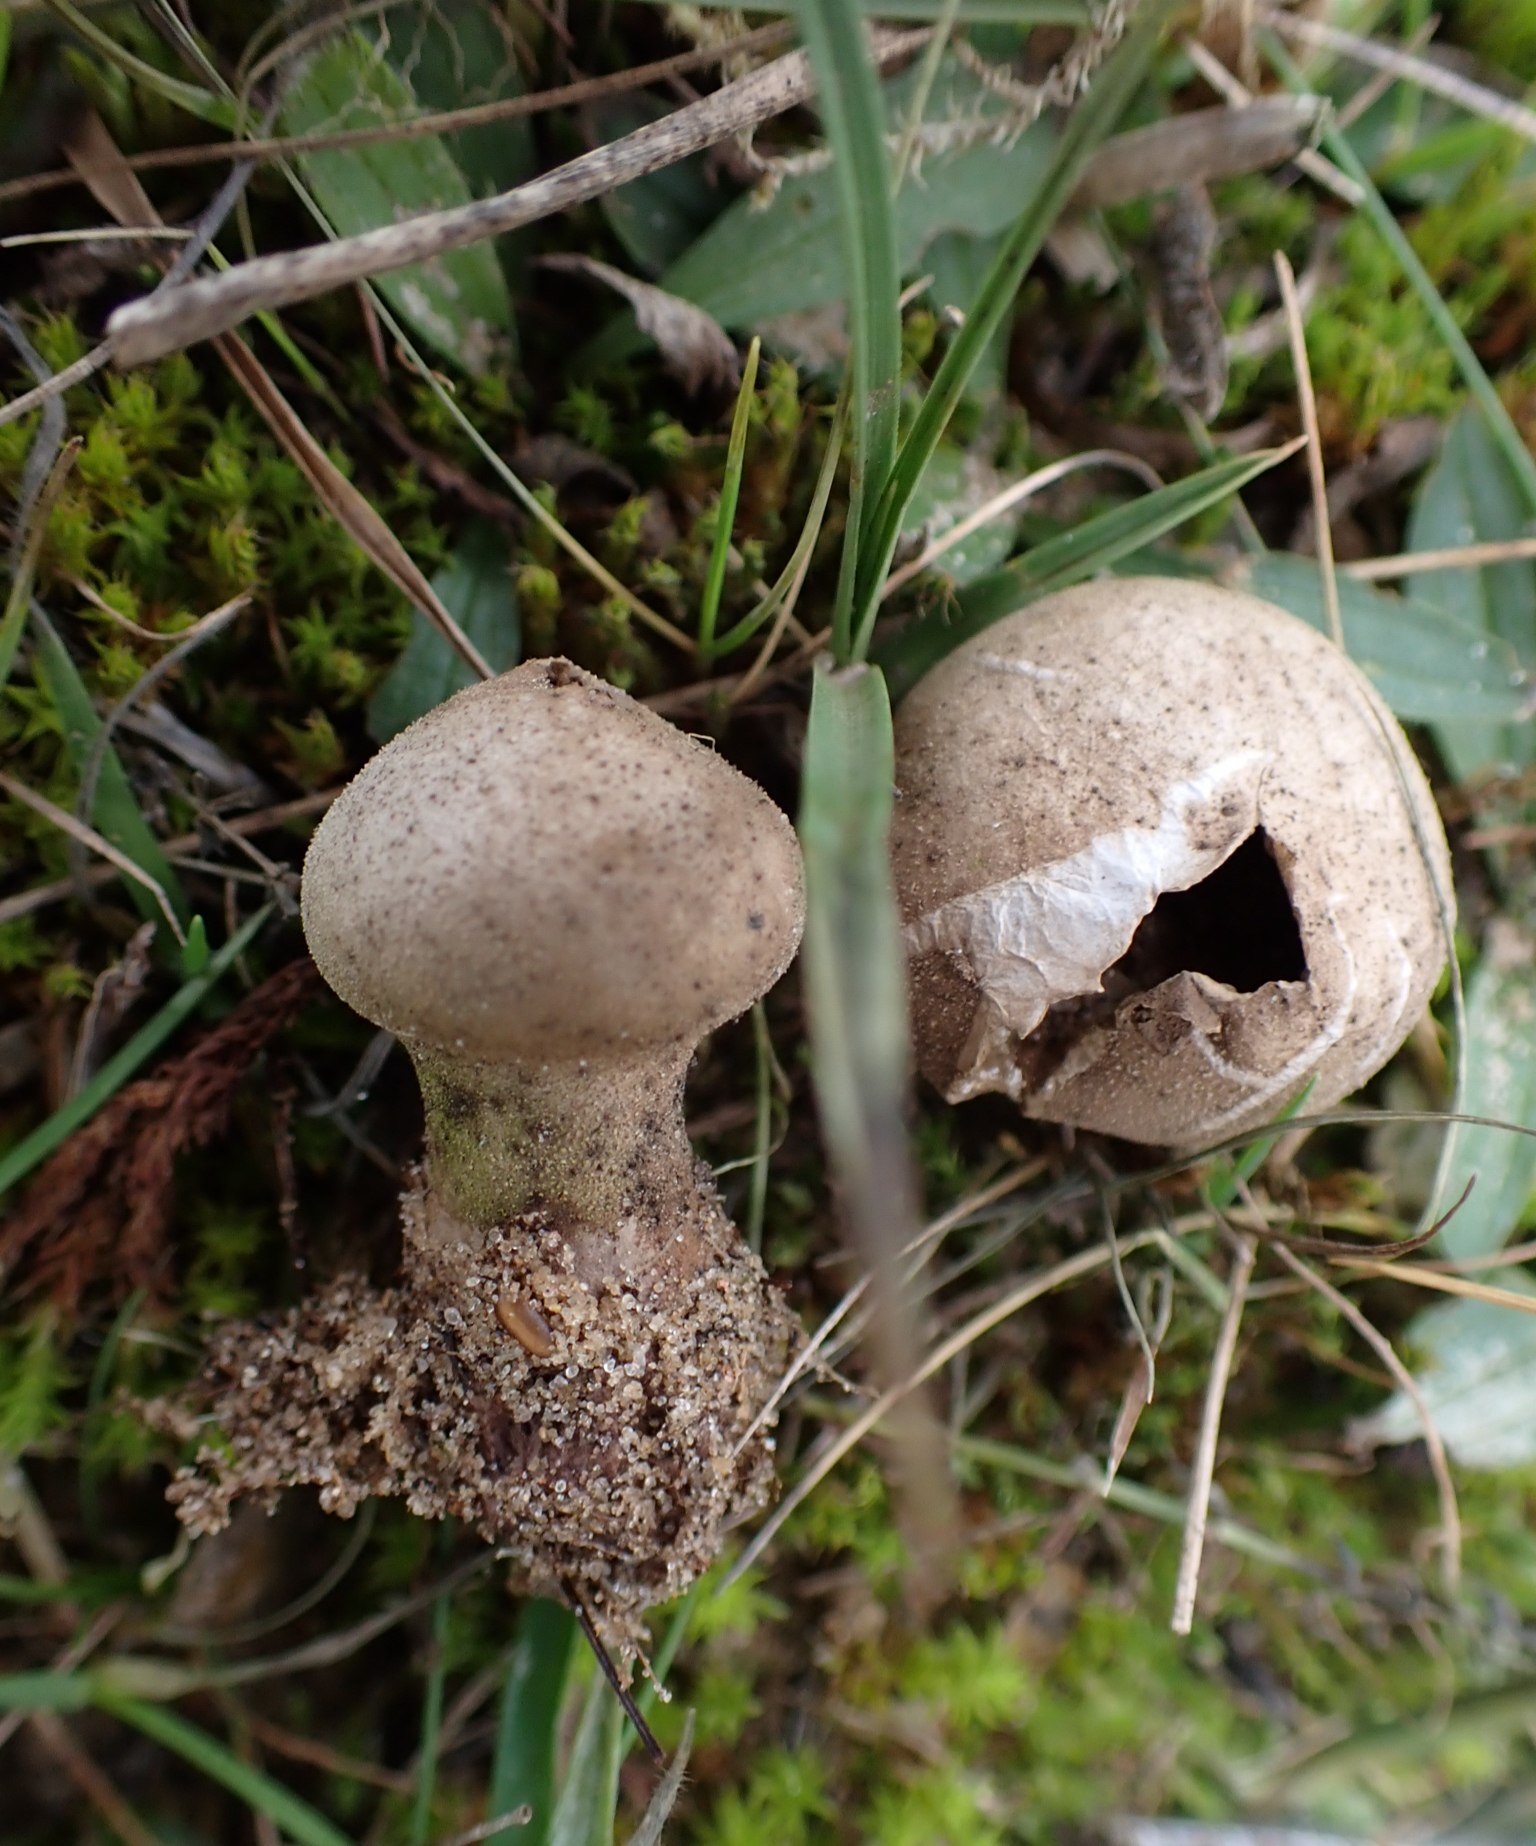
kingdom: Fungi
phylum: Basidiomycota
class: Agaricomycetes
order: Agaricales
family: Lycoperdaceae
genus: Lycoperdon
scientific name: Lycoperdon lividum
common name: mark-støvbold
